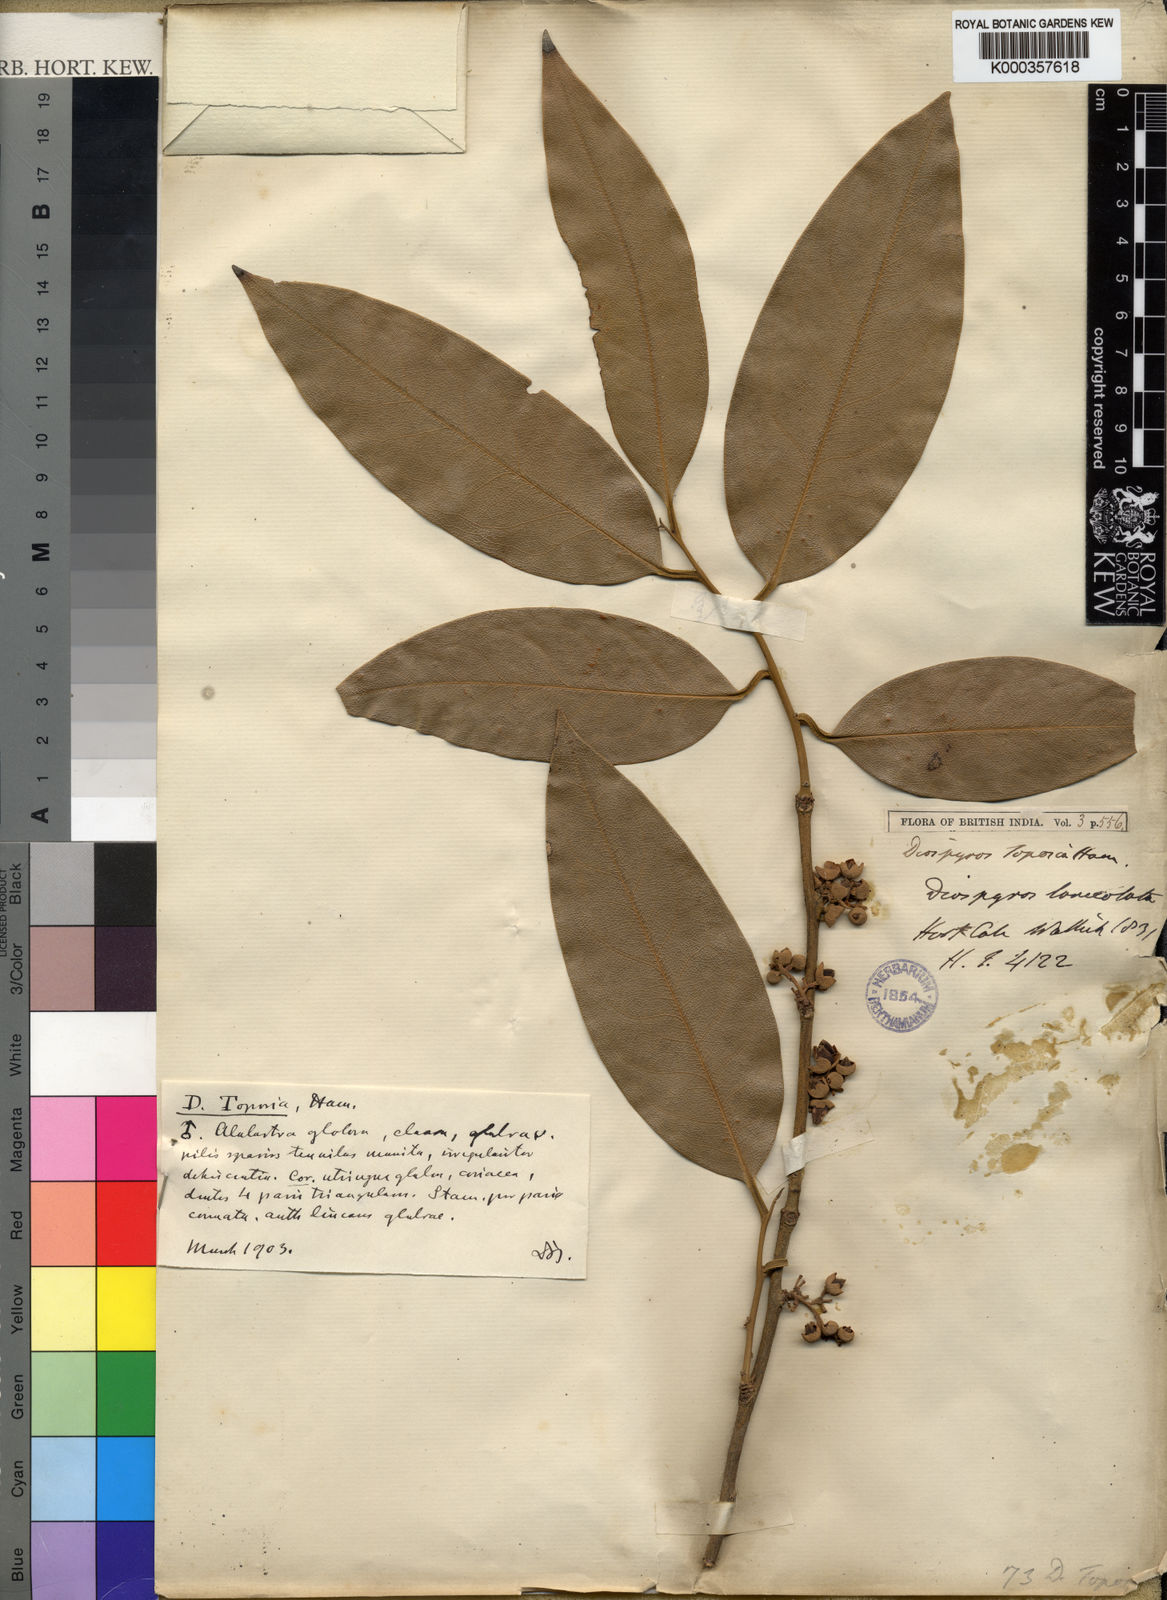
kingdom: Plantae
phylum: Tracheophyta
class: Magnoliopsida
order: Ericales
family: Ebenaceae
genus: Diospyros
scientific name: Diospyros toposia
